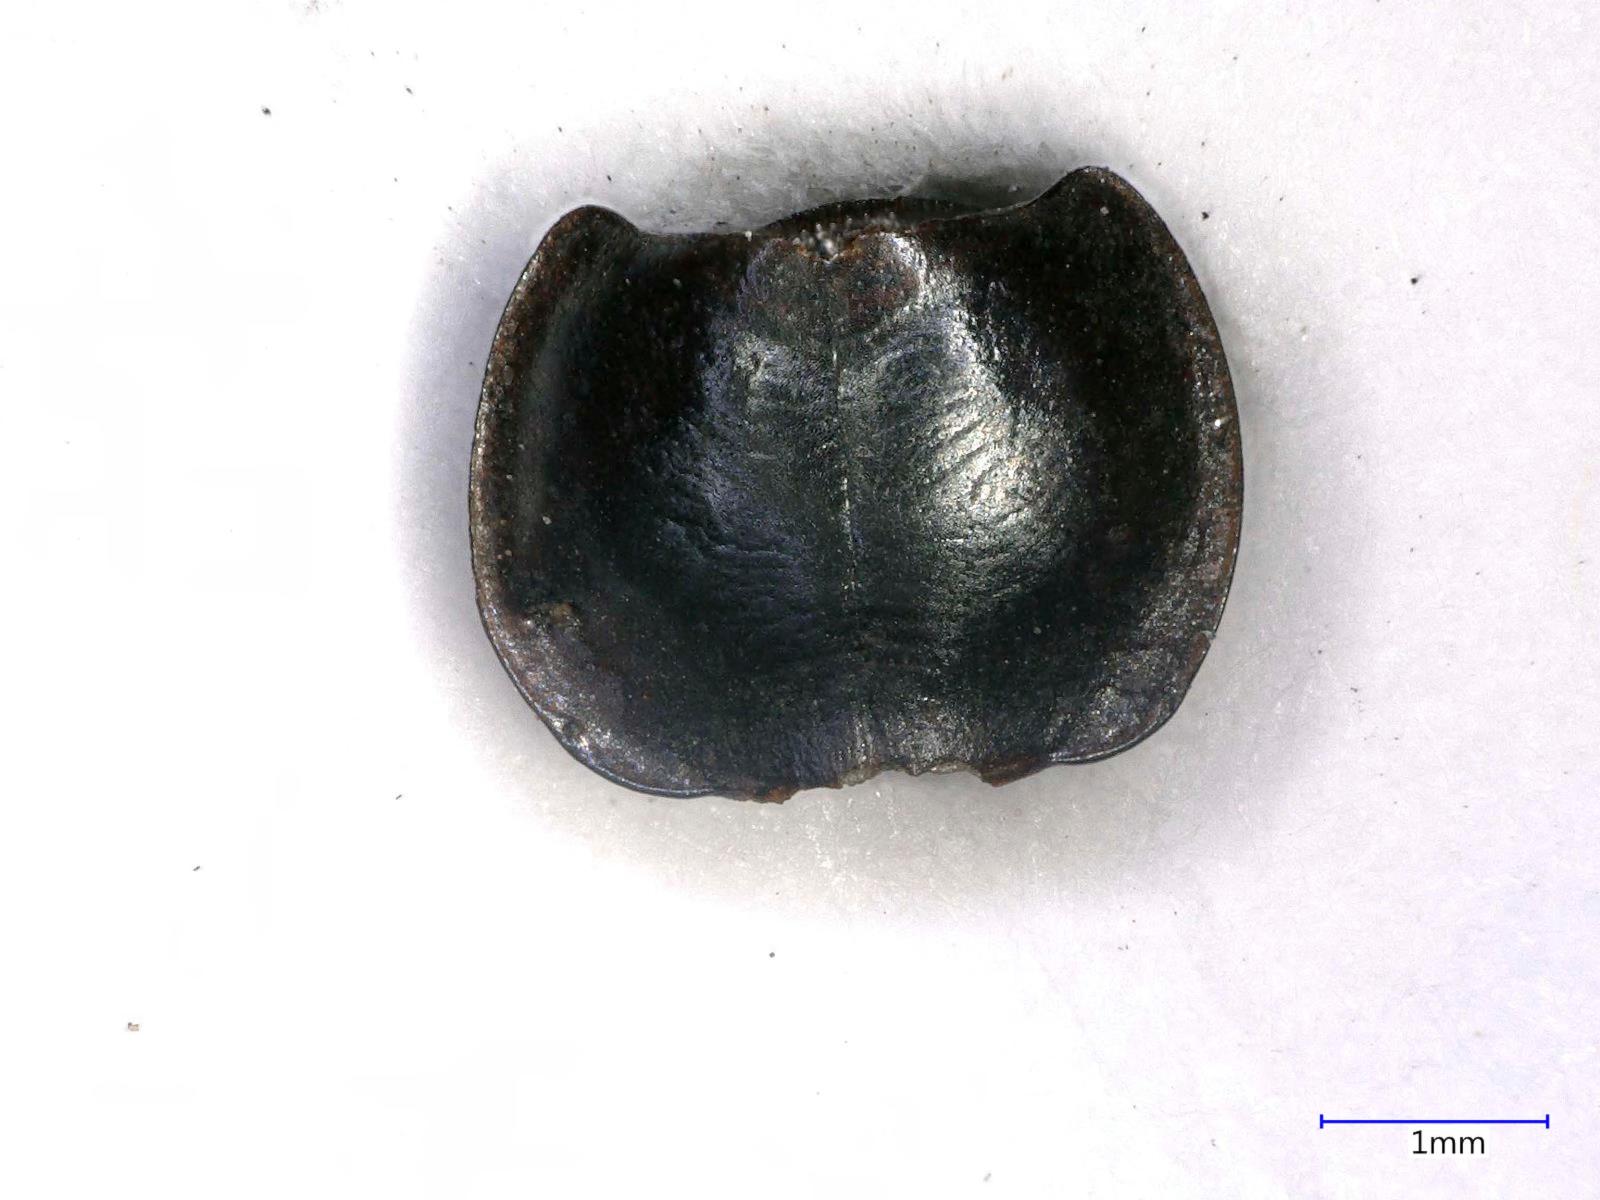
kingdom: Animalia
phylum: Arthropoda
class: Insecta
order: Coleoptera
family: Carabidae
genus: Tanystoma
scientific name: Tanystoma maculicolle
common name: Tule beetle
